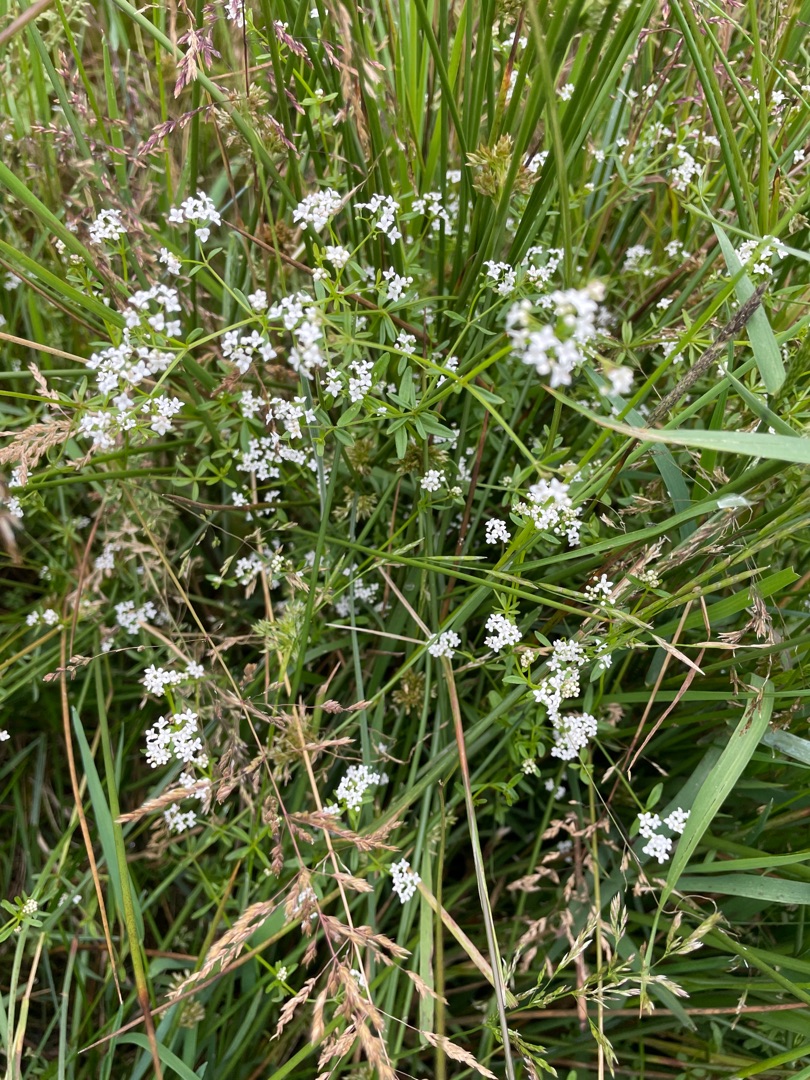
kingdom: Plantae
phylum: Tracheophyta
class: Magnoliopsida
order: Gentianales
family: Rubiaceae
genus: Galium
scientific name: Galium palustre
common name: Kær-snerre
